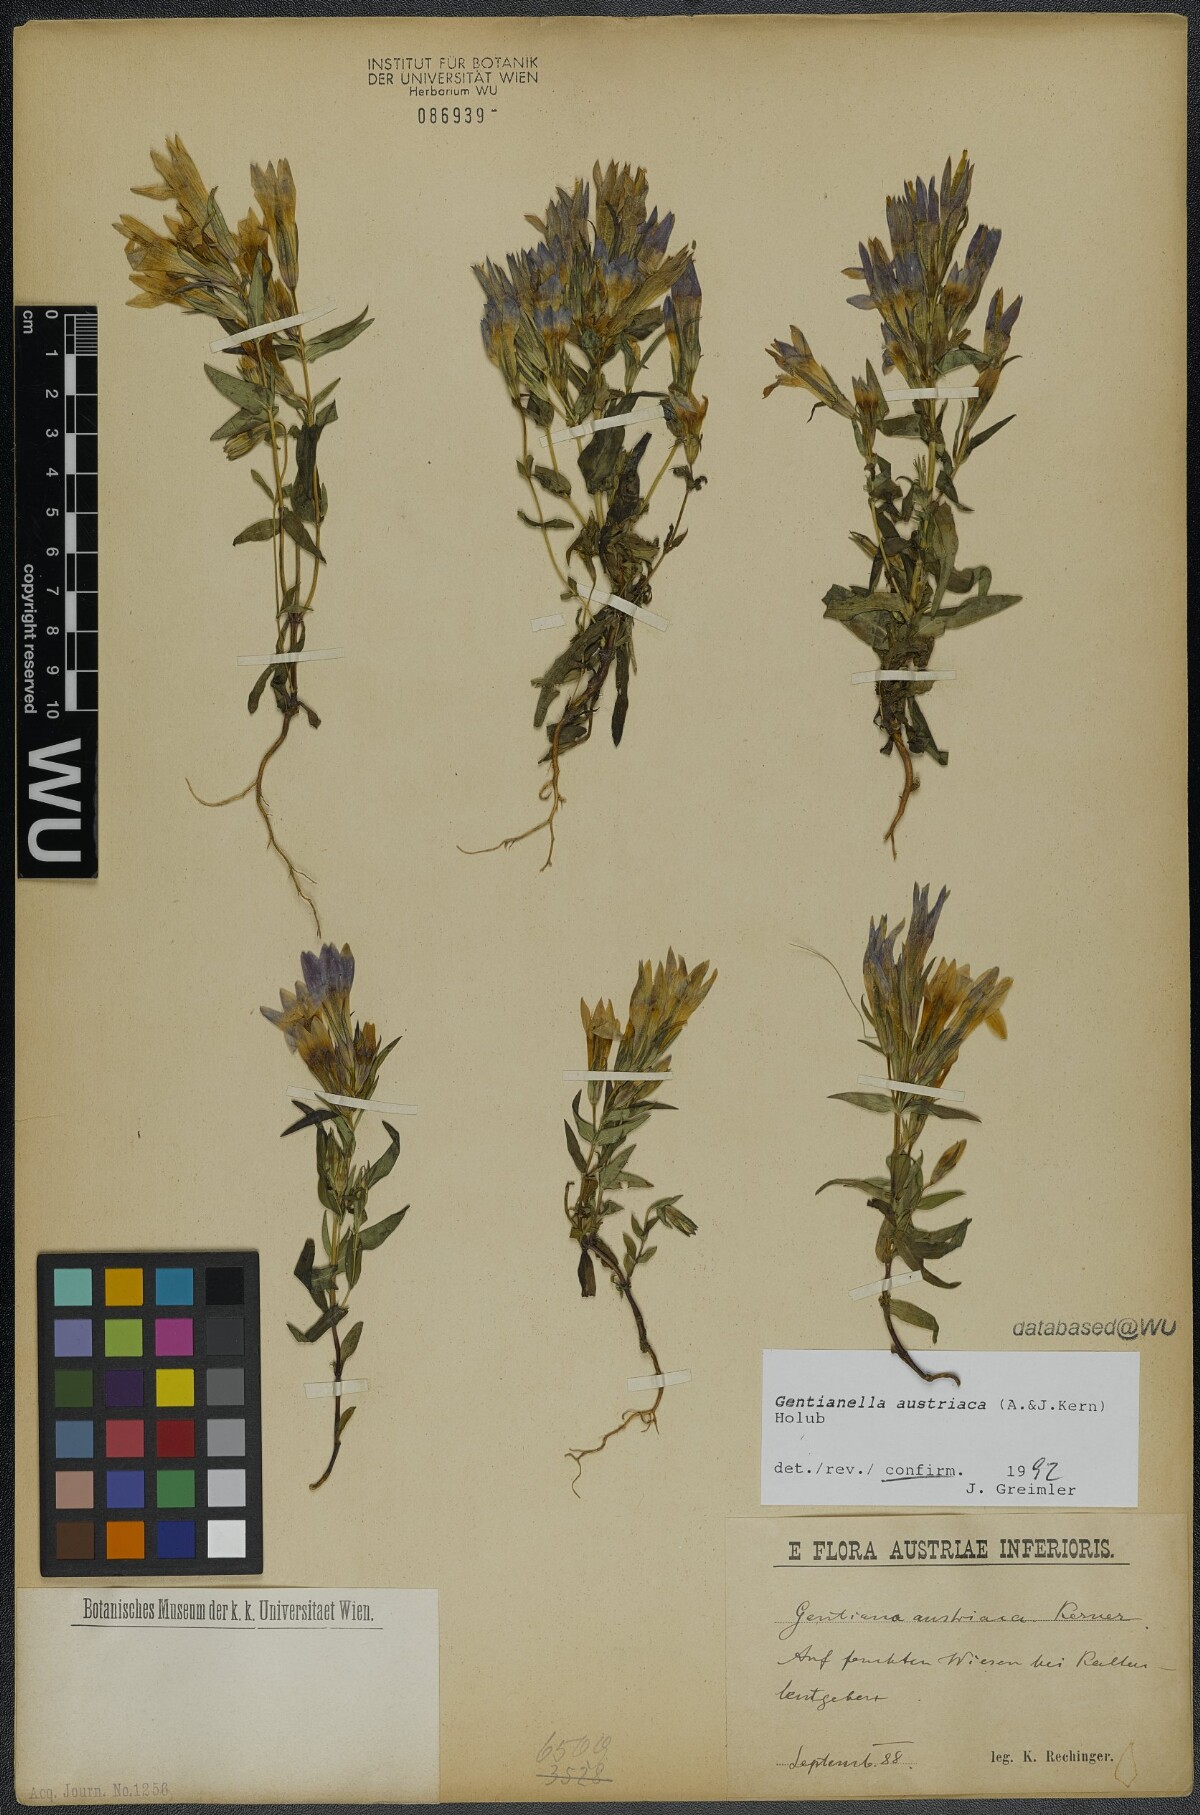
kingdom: Plantae
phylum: Tracheophyta
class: Magnoliopsida
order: Gentianales
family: Gentianaceae
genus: Gentianella
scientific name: Gentianella austriaca
